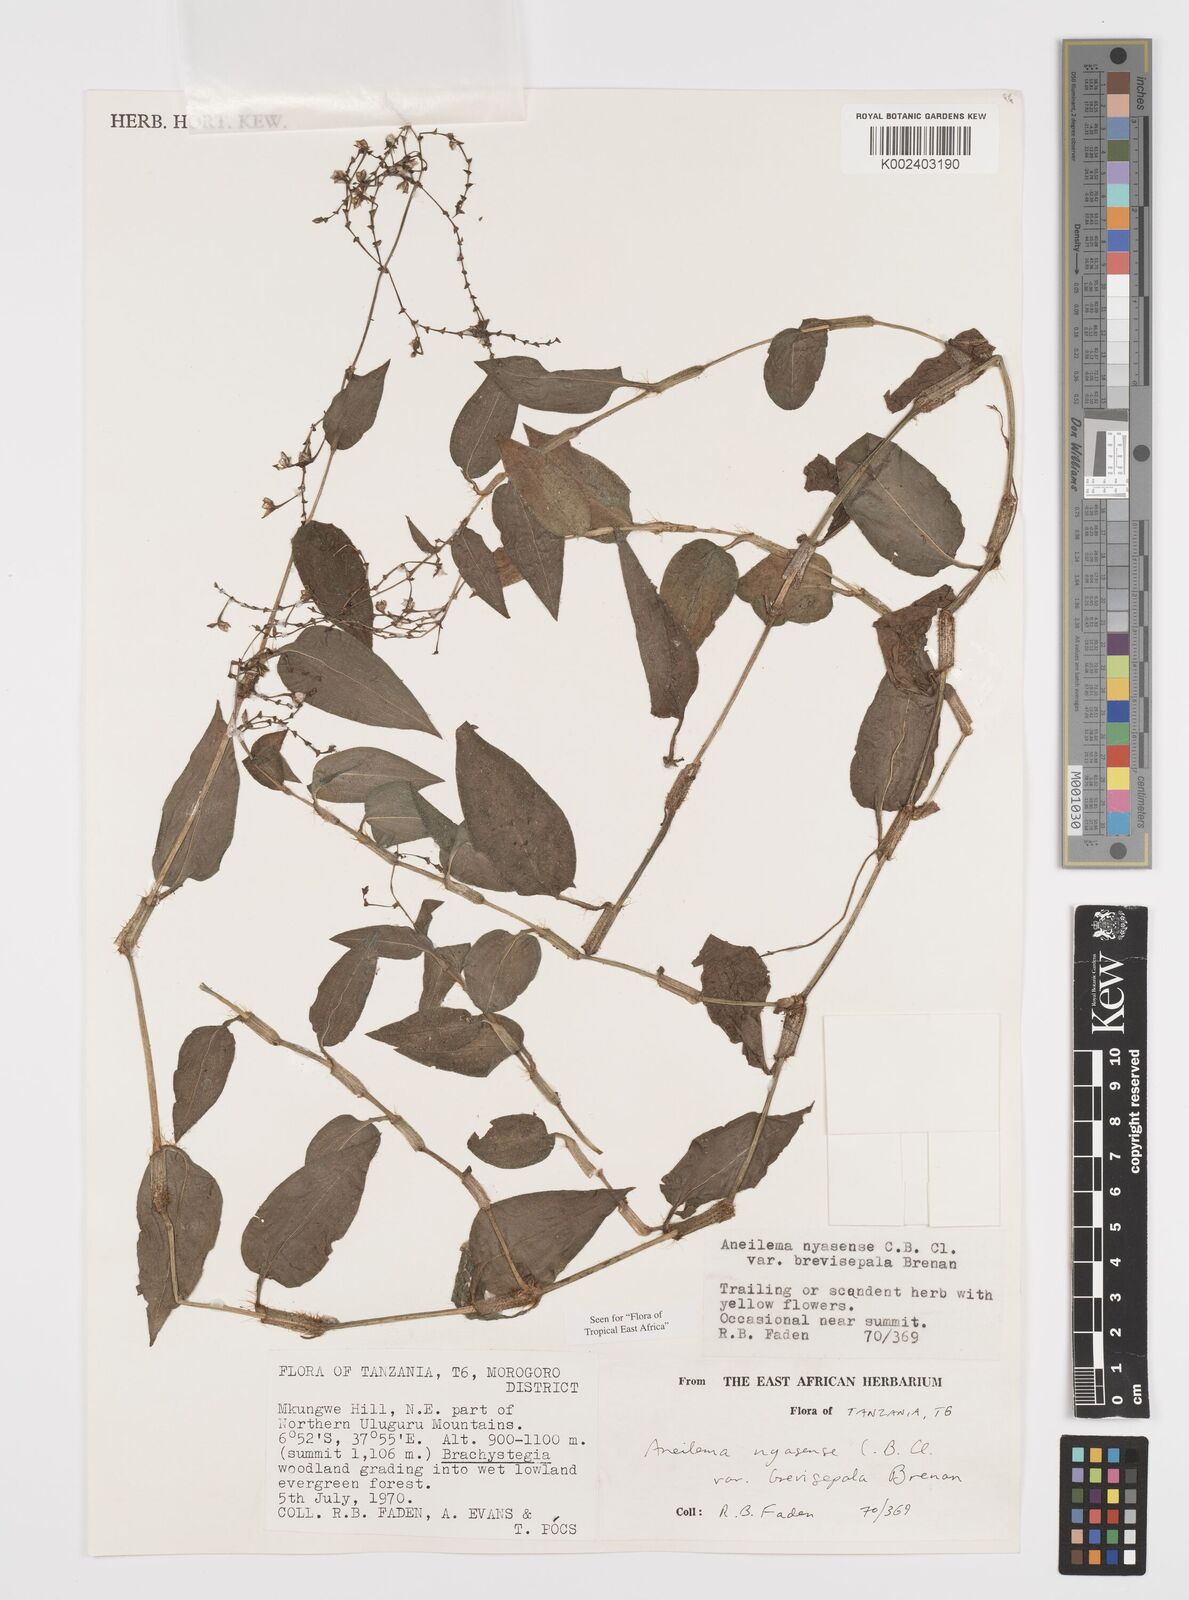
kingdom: Plantae
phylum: Tracheophyta
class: Liliopsida
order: Commelinales
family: Commelinaceae
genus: Aneilema
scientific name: Aneilema nyasense
